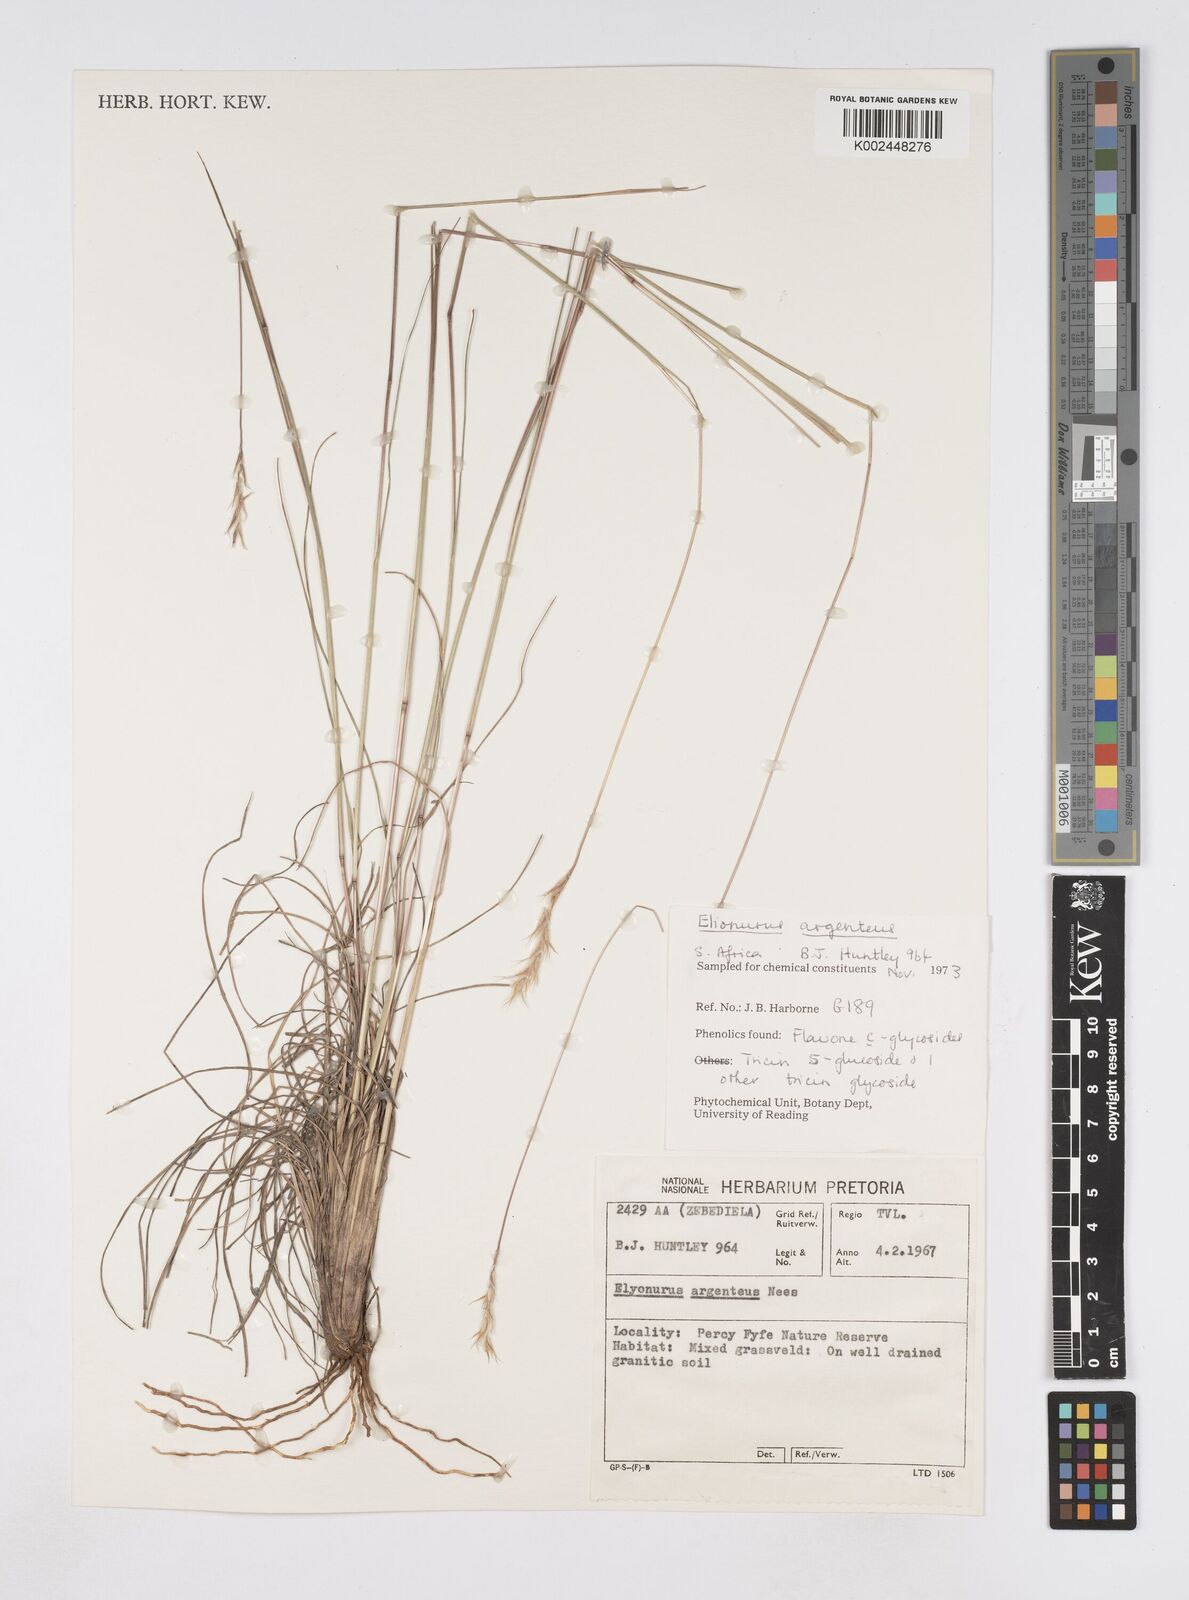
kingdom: Plantae
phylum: Tracheophyta
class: Liliopsida
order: Poales
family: Poaceae
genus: Elionurus
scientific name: Elionurus muticus
